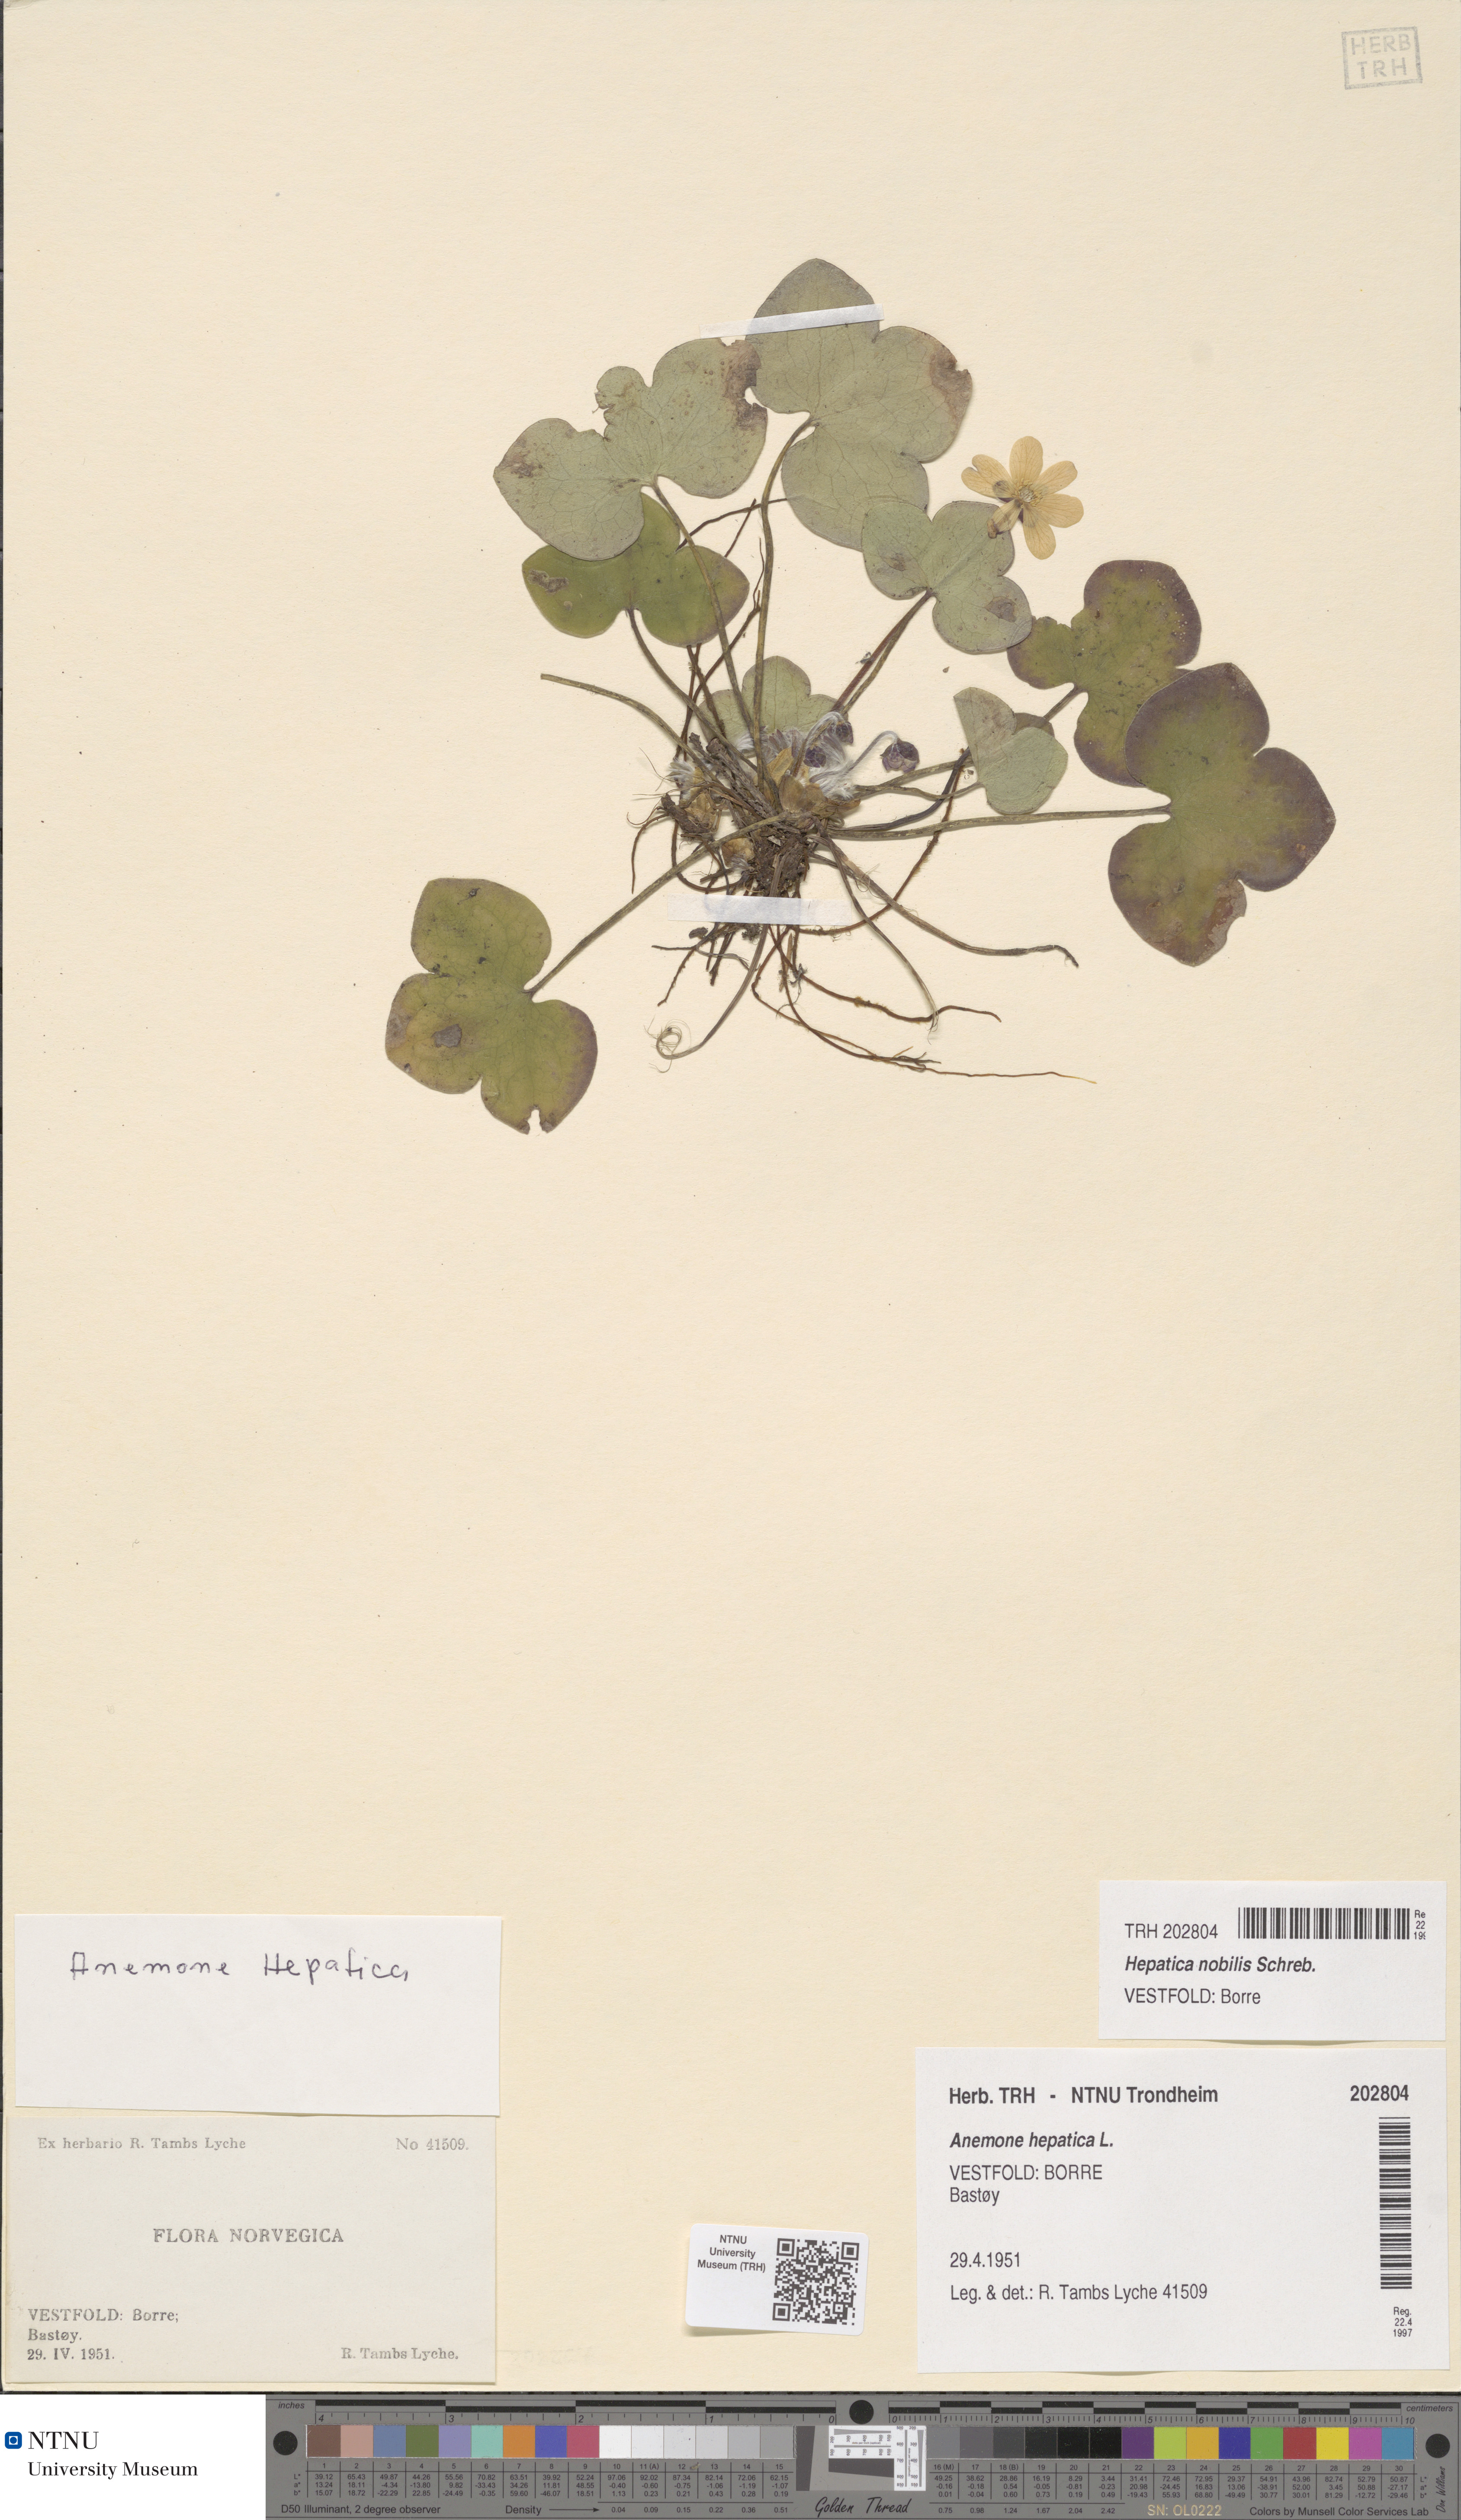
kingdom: Plantae
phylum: Tracheophyta
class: Magnoliopsida
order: Ranunculales
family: Ranunculaceae
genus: Hepatica
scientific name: Hepatica nobilis
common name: Liverleaf
